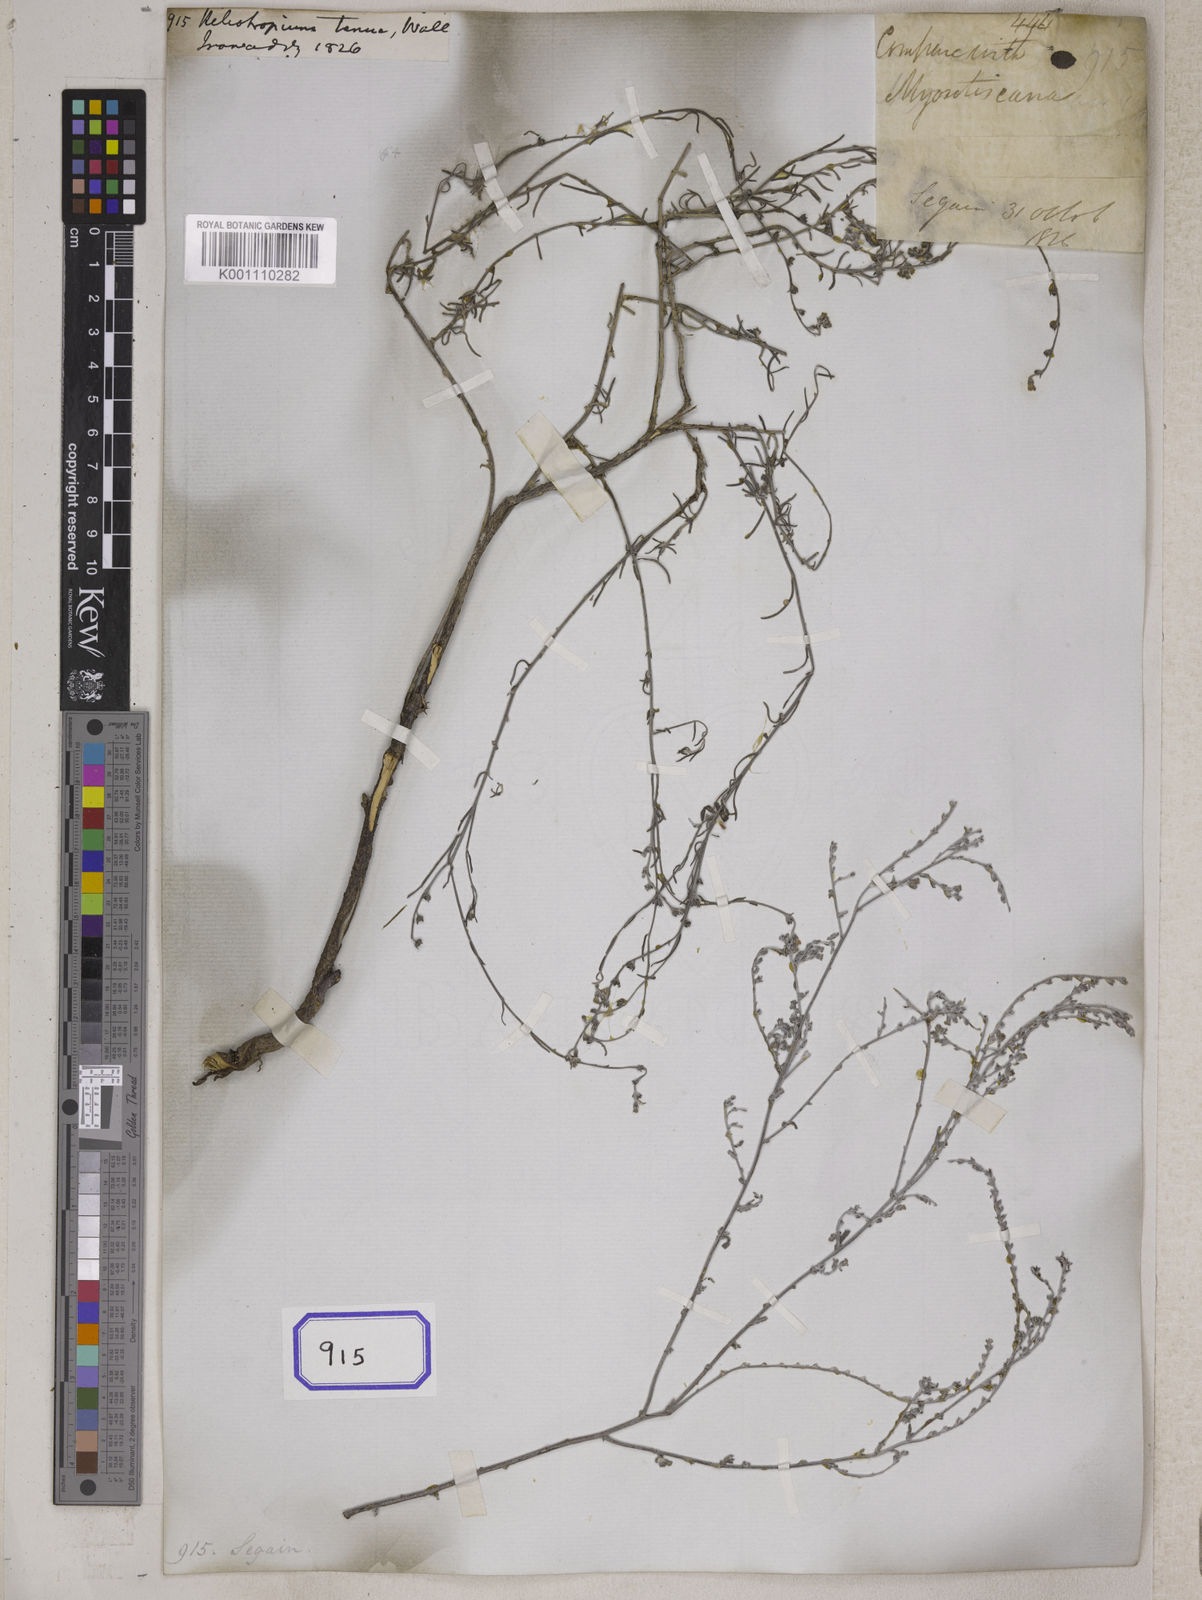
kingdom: Plantae
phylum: Tracheophyta
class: Magnoliopsida
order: Boraginales
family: Heliotropiaceae
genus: Euploca
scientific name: Euploca paniculata
